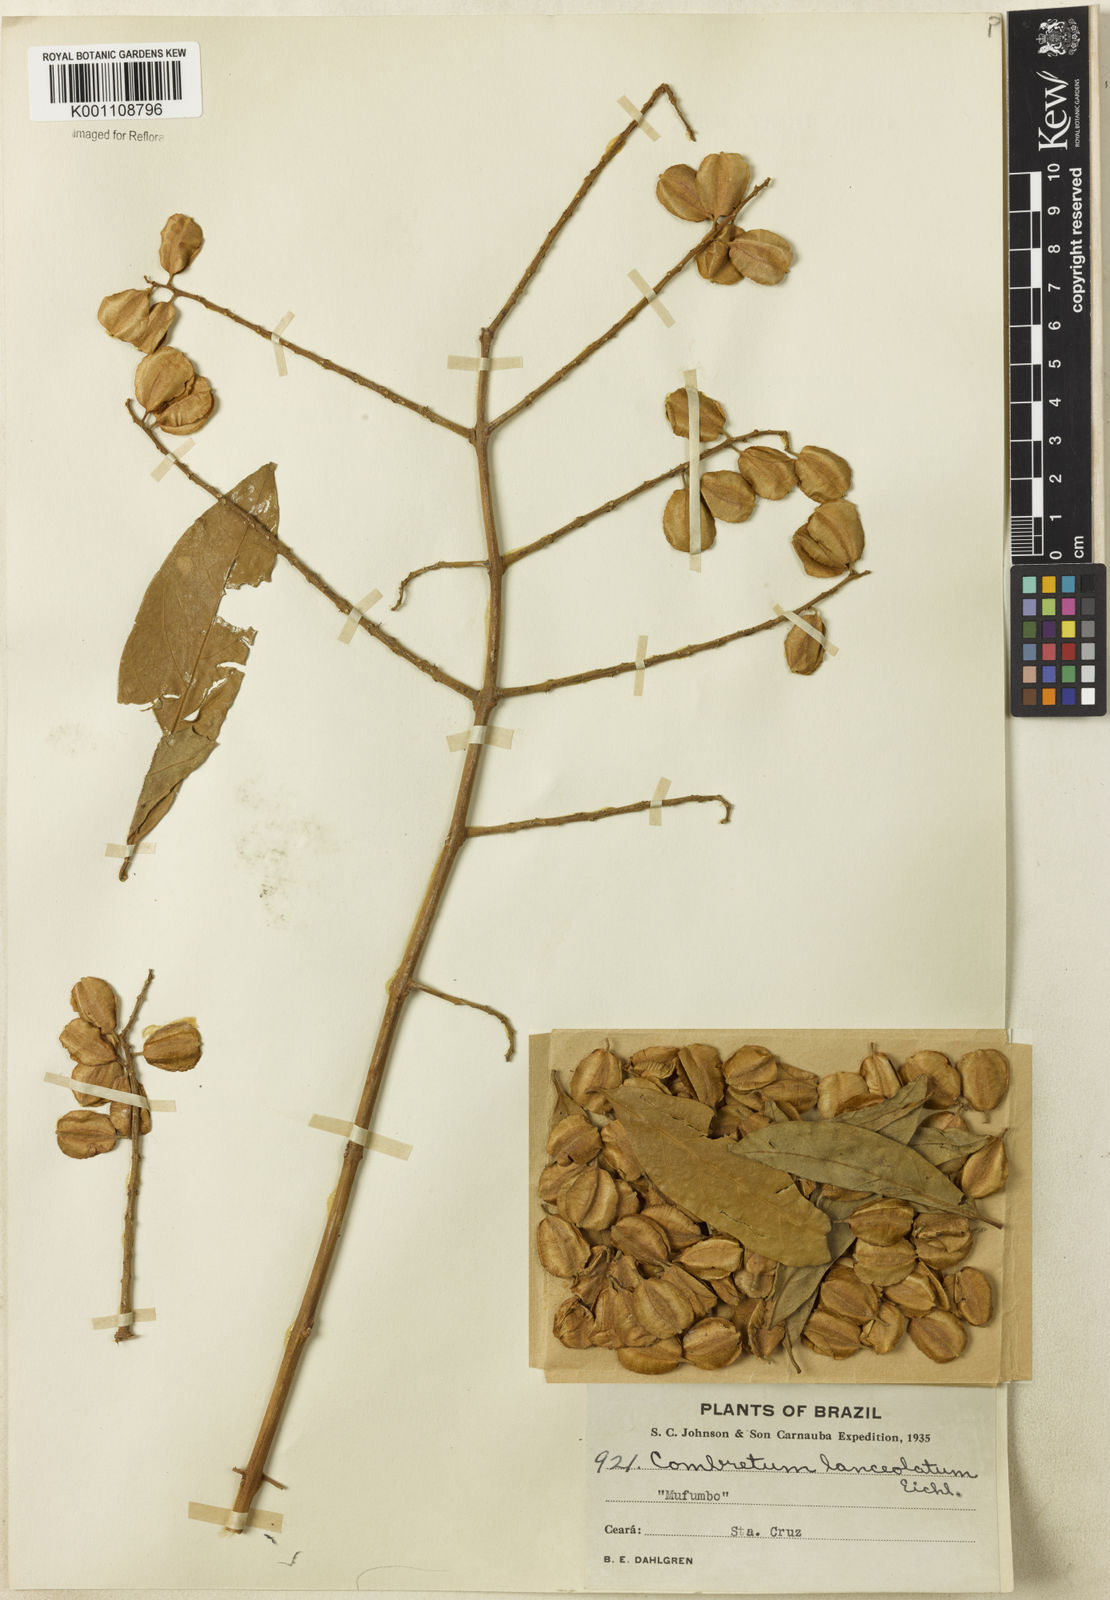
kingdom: Plantae
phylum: Tracheophyta
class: Magnoliopsida
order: Myrtales
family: Combretaceae
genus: Combretum
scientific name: Combretum lanceolatum
